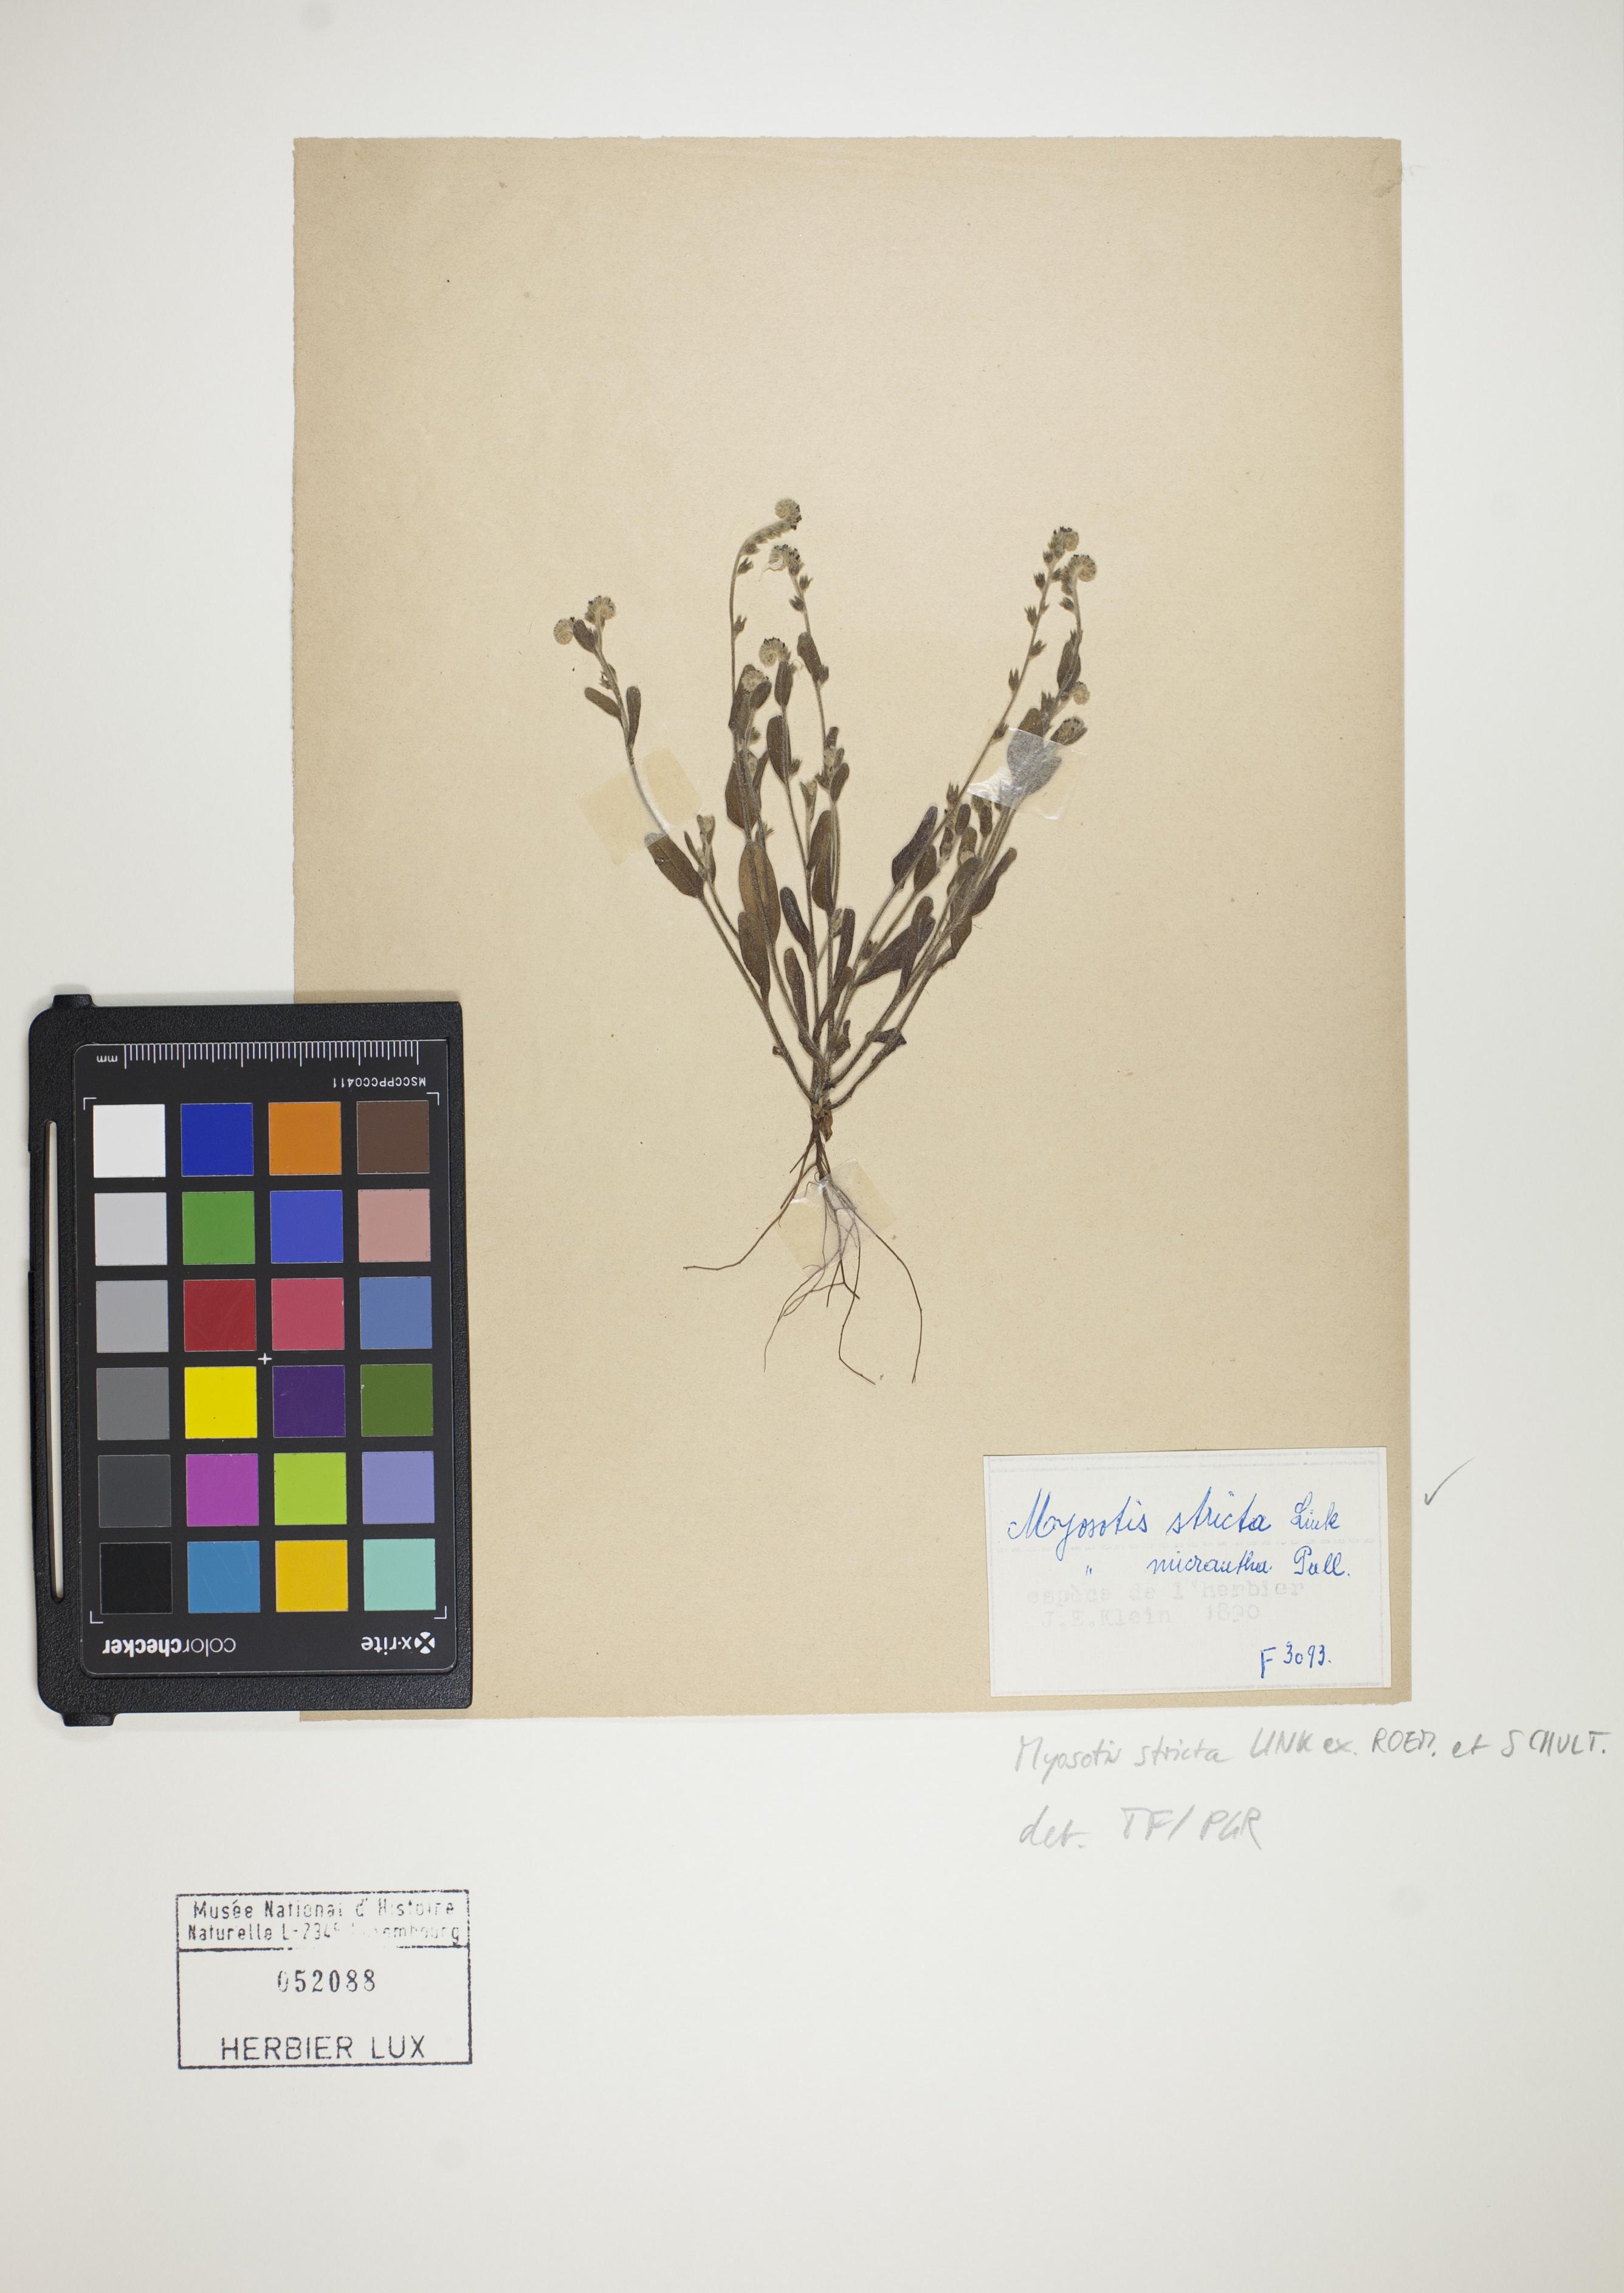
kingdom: Plantae
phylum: Tracheophyta
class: Magnoliopsida
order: Boraginales
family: Boraginaceae
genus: Myosotis
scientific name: Myosotis stricta
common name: Strict forget-me-not
